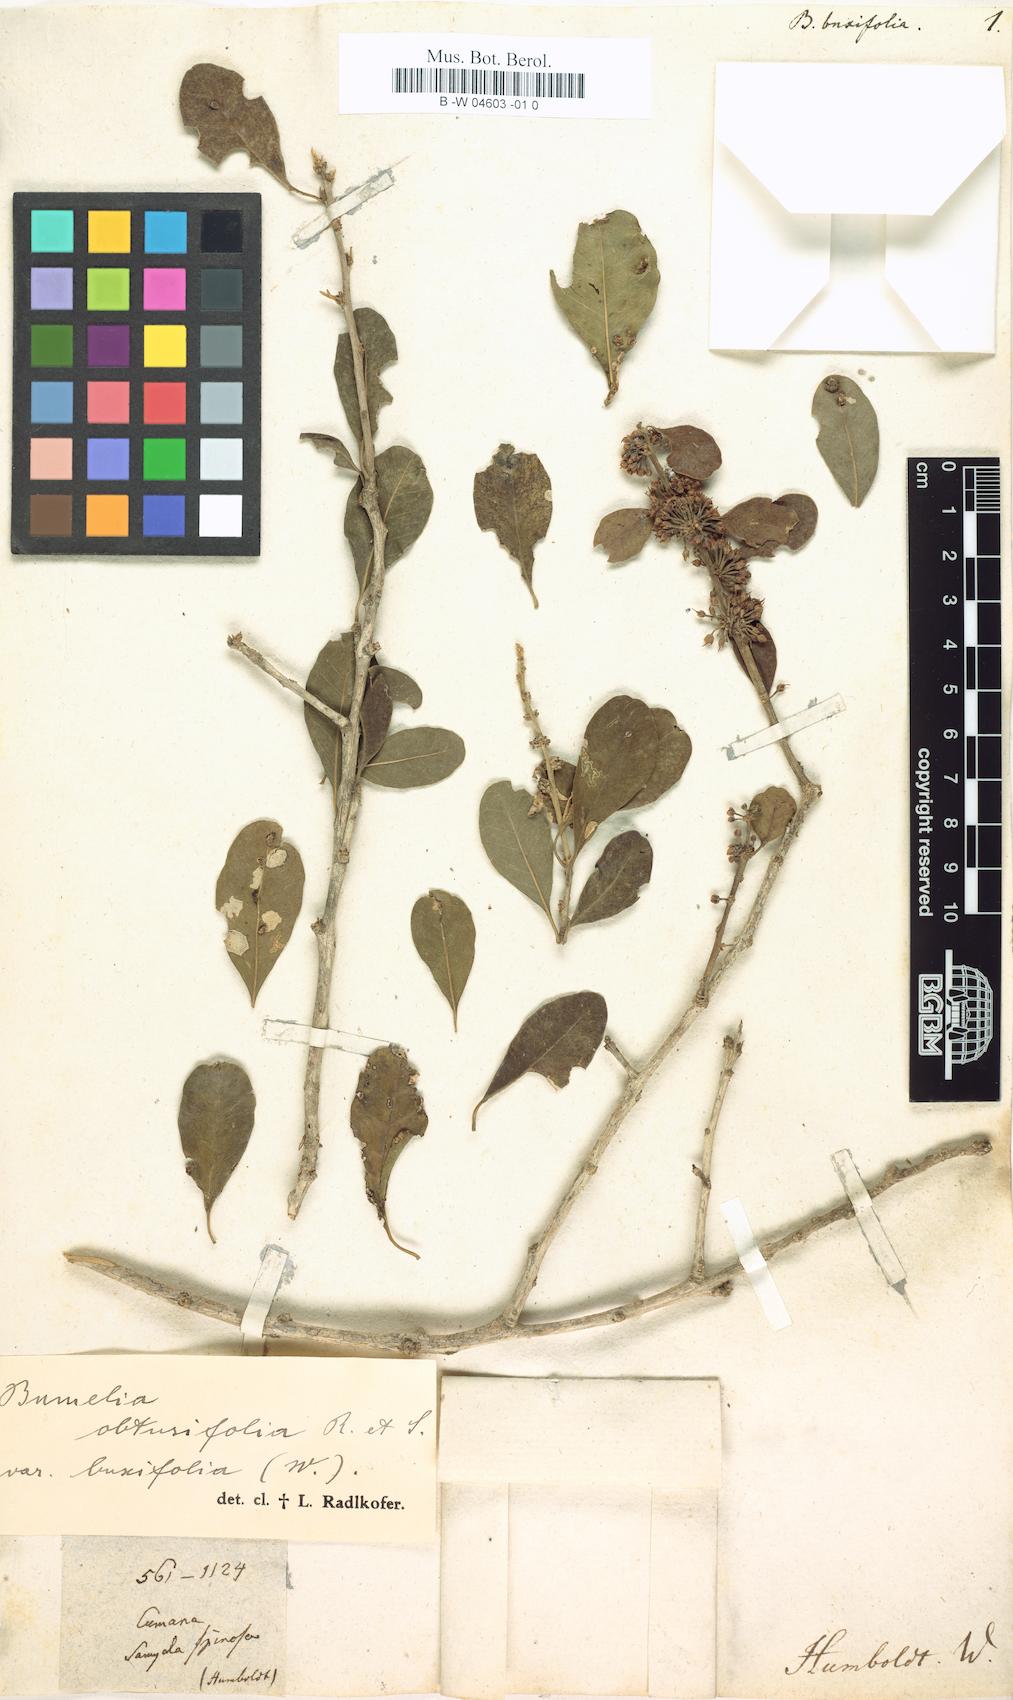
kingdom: Plantae
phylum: Tracheophyta
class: Magnoliopsida
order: Ericales
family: Sapotaceae
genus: Sideroxylon
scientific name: Sideroxylon obtusifolium
